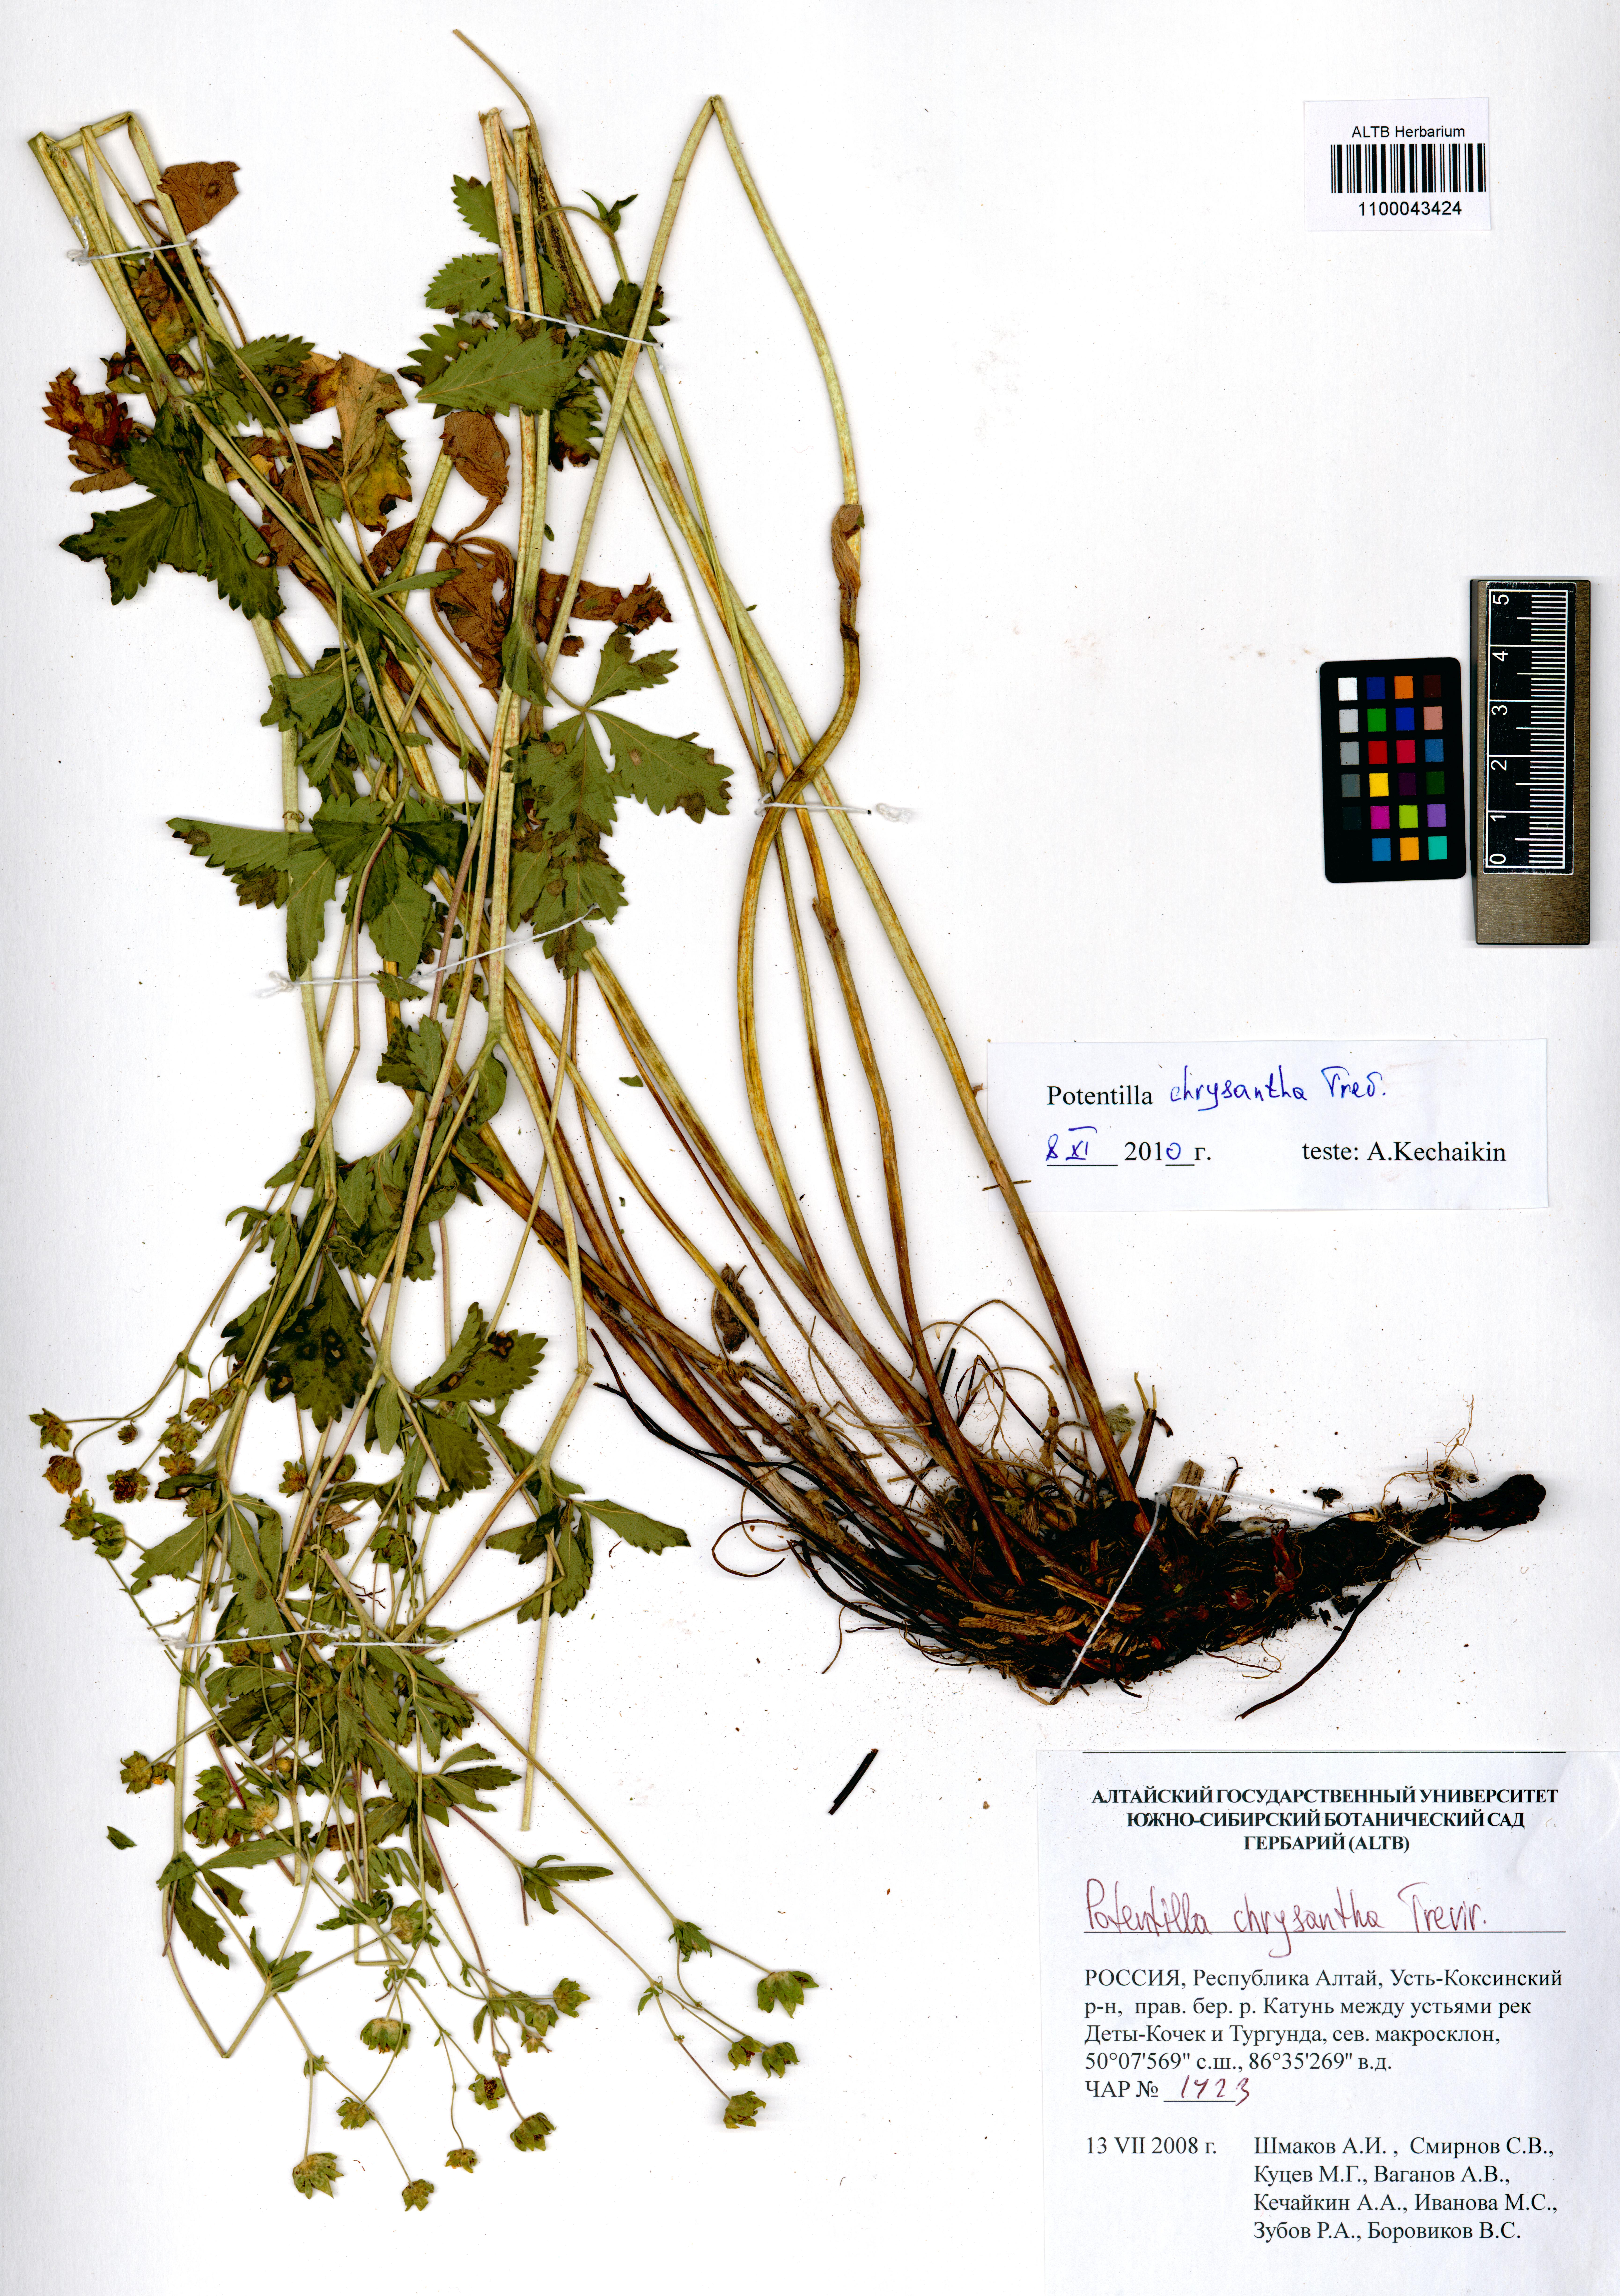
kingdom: Plantae
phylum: Tracheophyta
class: Magnoliopsida
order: Rosales
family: Rosaceae
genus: Potentilla
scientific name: Potentilla chrysantha
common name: Thuringian cinquefoil
